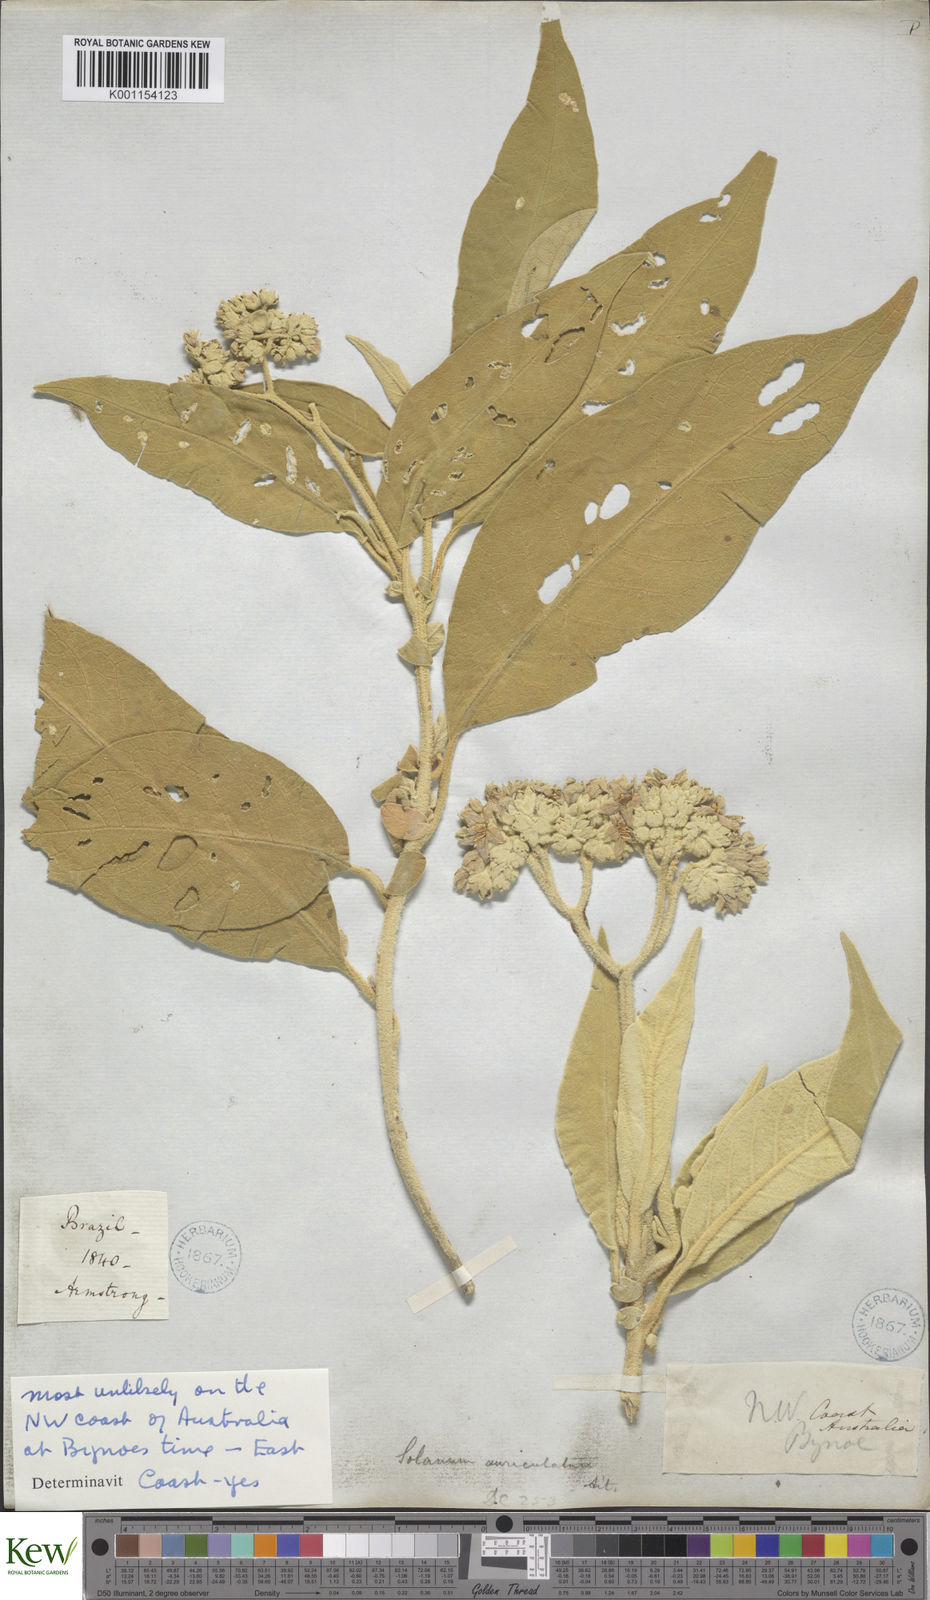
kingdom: Plantae
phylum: Tracheophyta
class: Magnoliopsida
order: Solanales
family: Solanaceae
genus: Solanum
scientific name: Solanum mauritianum
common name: Earleaf nightshade
